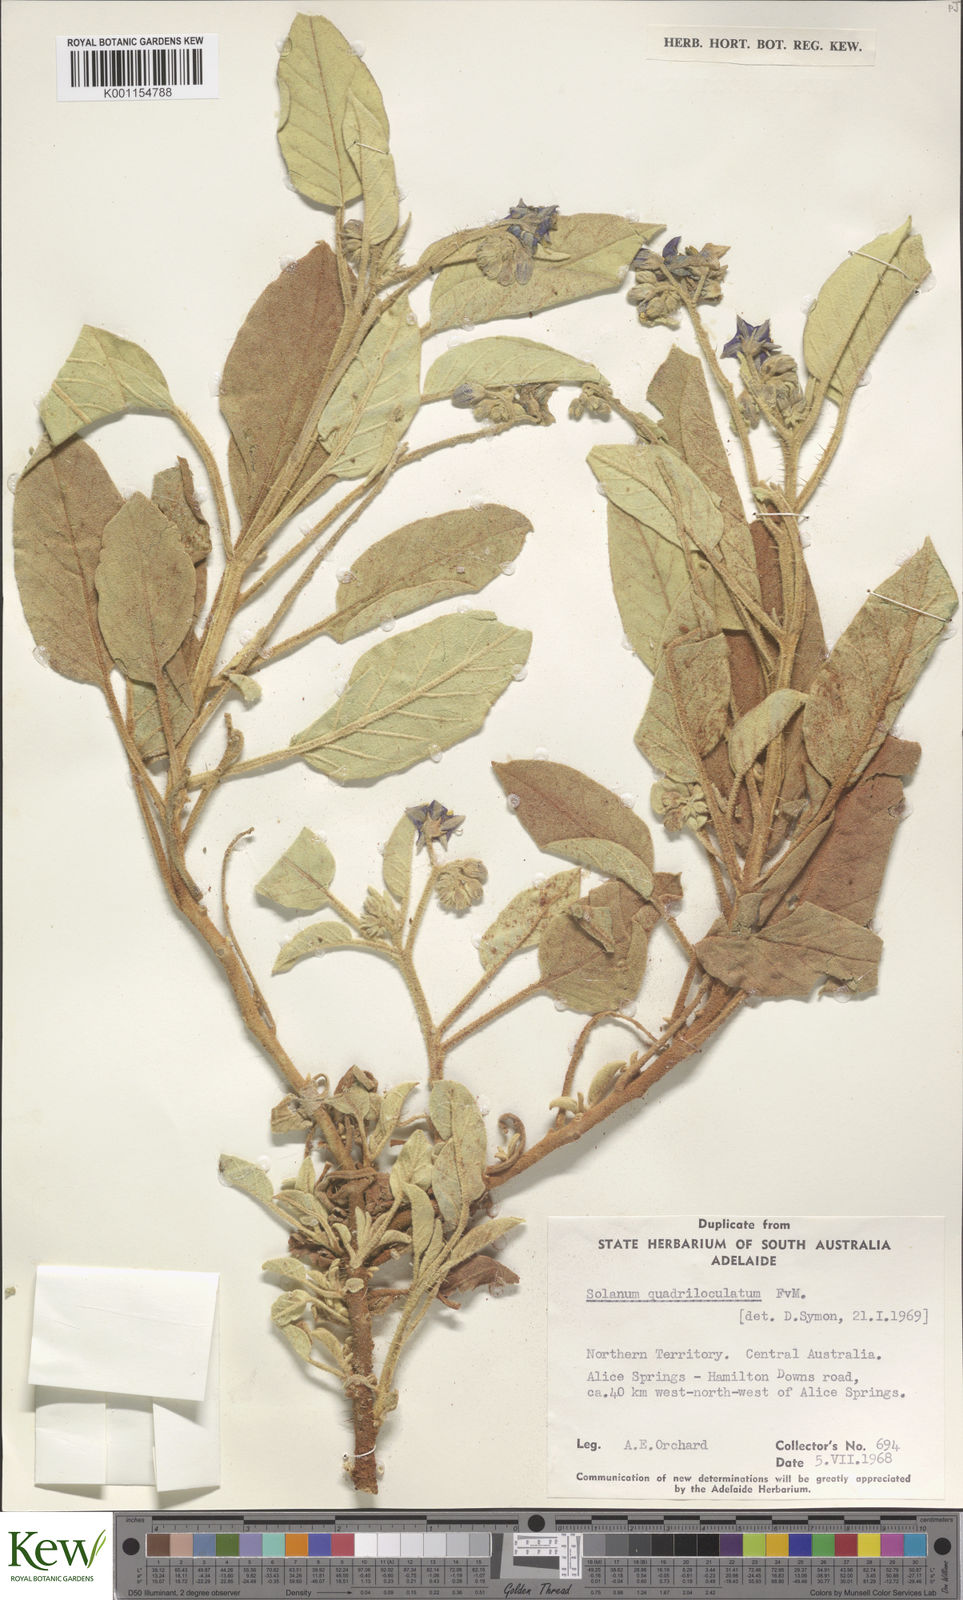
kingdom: Plantae
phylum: Tracheophyta
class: Magnoliopsida
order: Solanales
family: Solanaceae
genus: Solanum
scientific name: Solanum quadriloculatum
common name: Wild tomato
